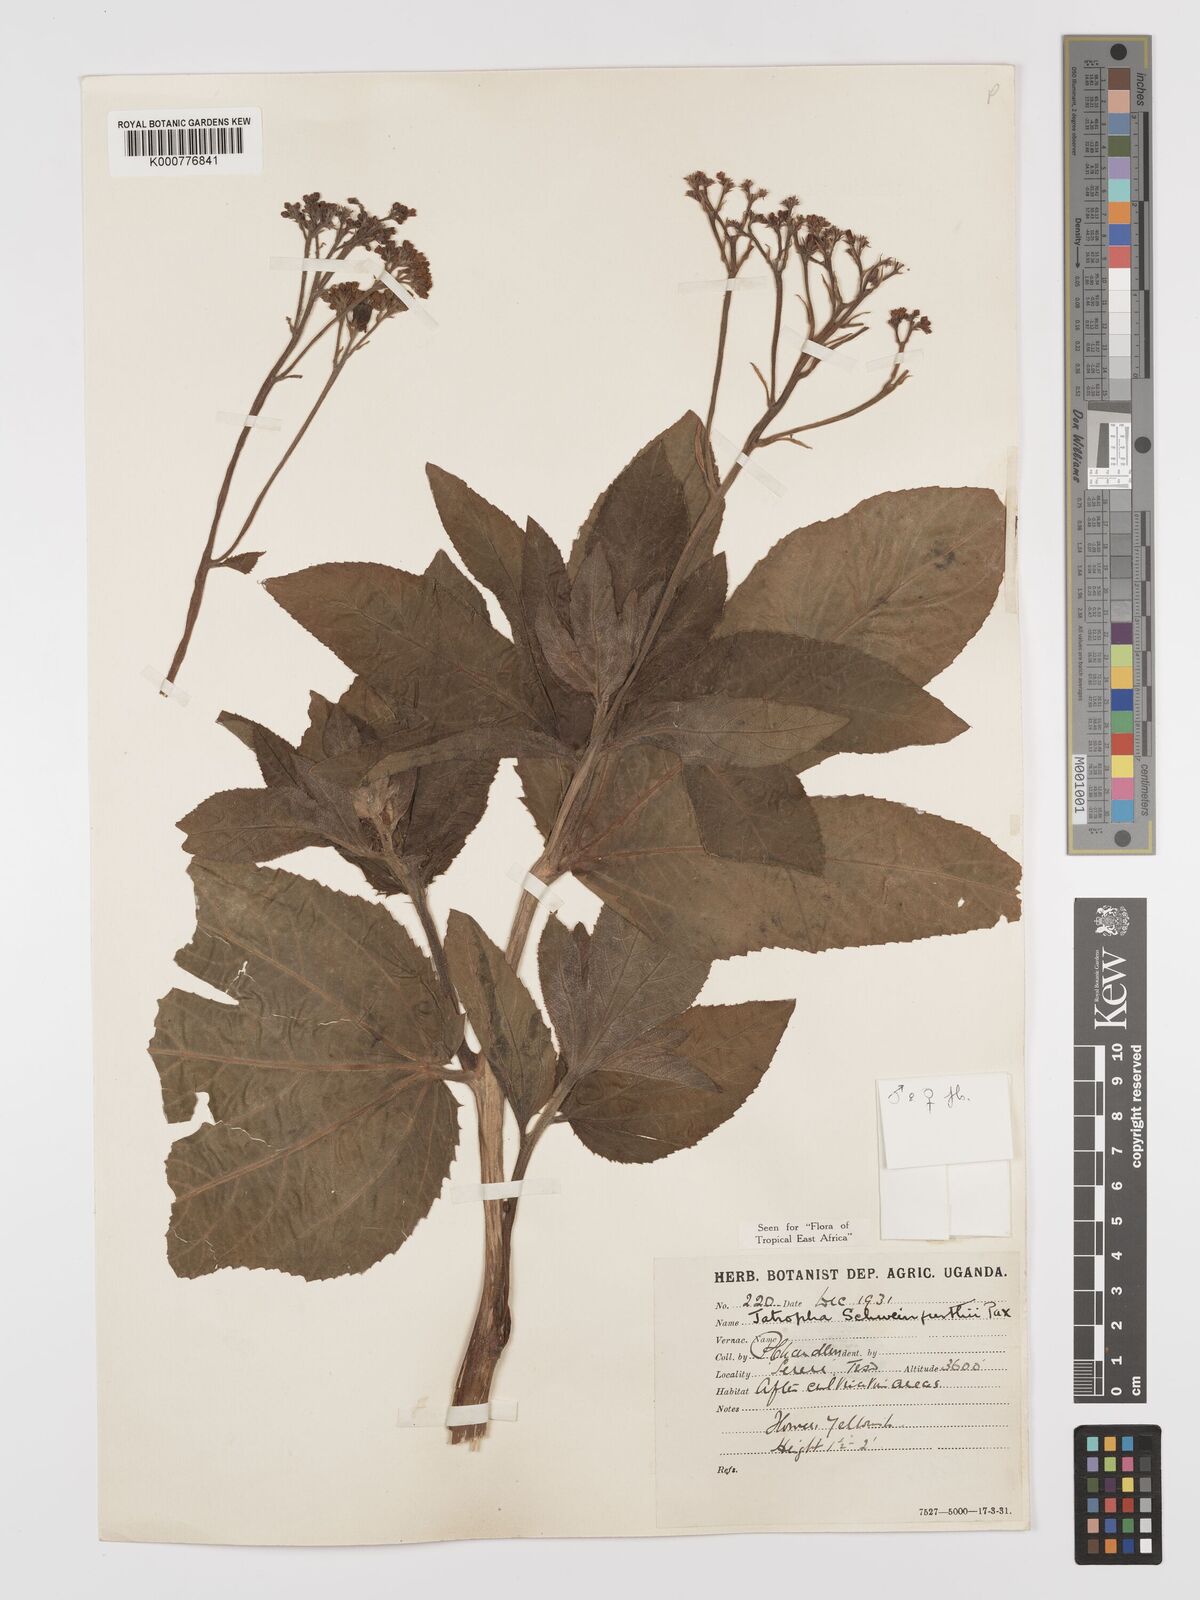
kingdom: Plantae
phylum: Tracheophyta
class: Magnoliopsida
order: Malpighiales
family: Euphorbiaceae
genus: Jatropha
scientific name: Jatropha schweinfurthii
